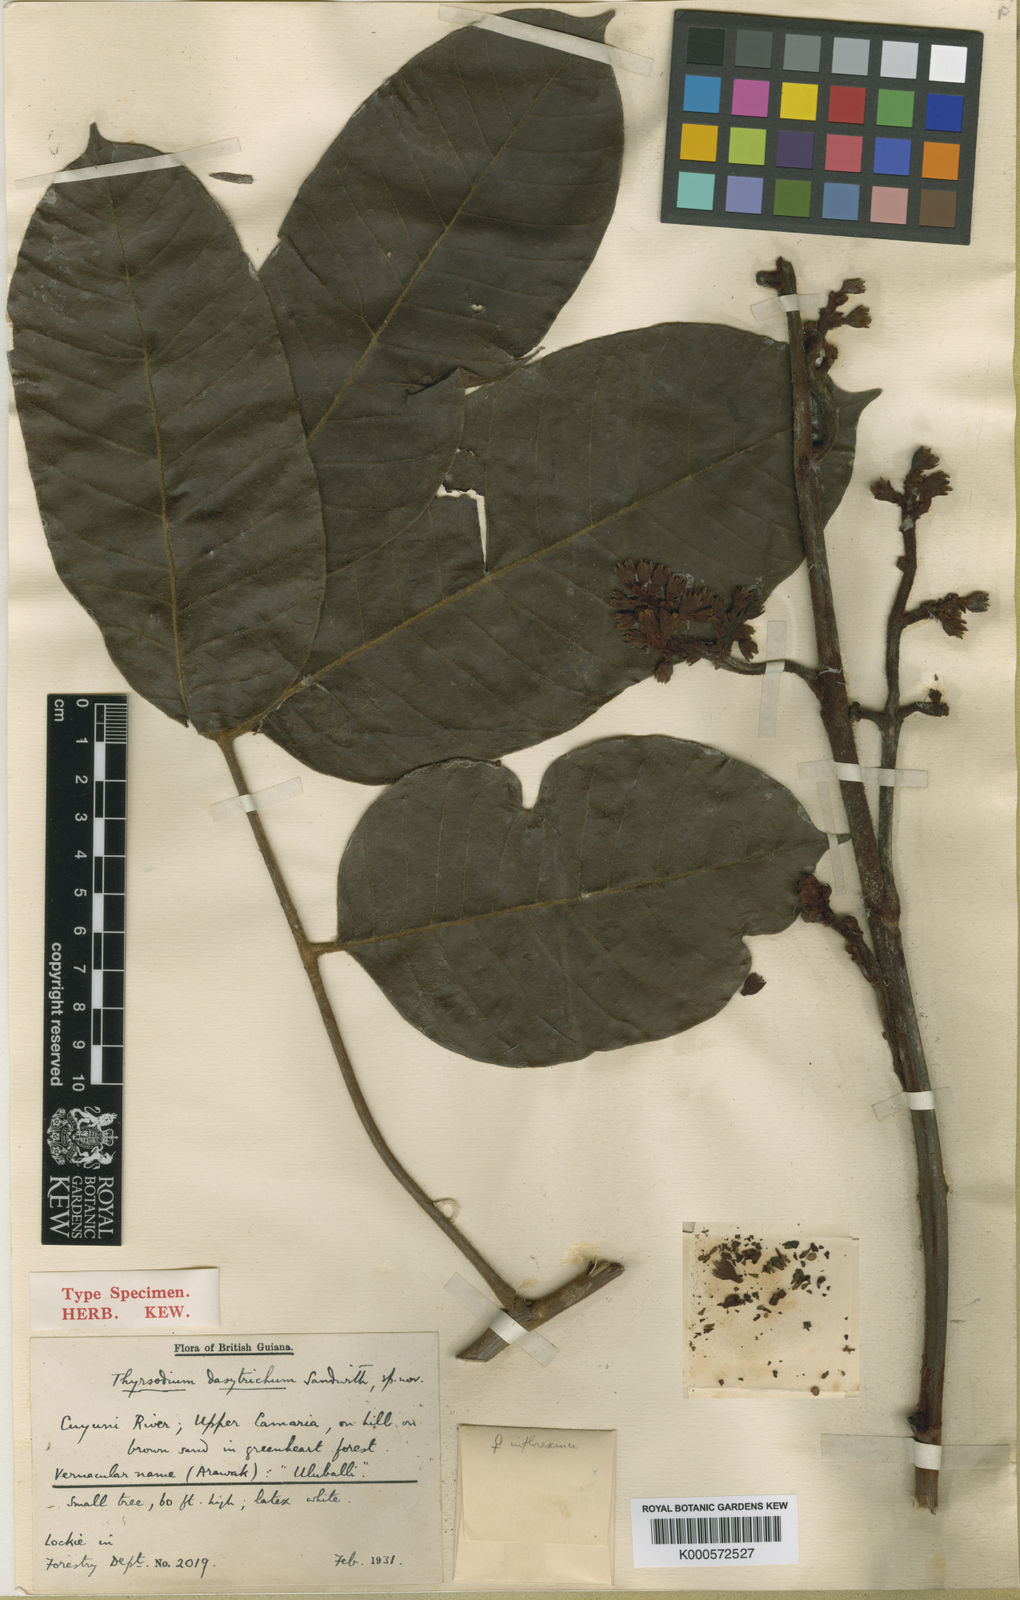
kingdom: Plantae
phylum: Tracheophyta
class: Magnoliopsida
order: Sapindales
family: Anacardiaceae
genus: Thyrsodium
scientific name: Thyrsodium spruceanum
